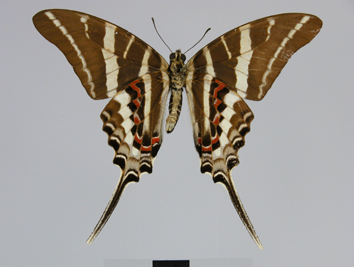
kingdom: Animalia
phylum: Arthropoda
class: Insecta
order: Lepidoptera
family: Papilionidae
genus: Graphium
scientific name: Graphium rhesus
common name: Monkey swordtail
